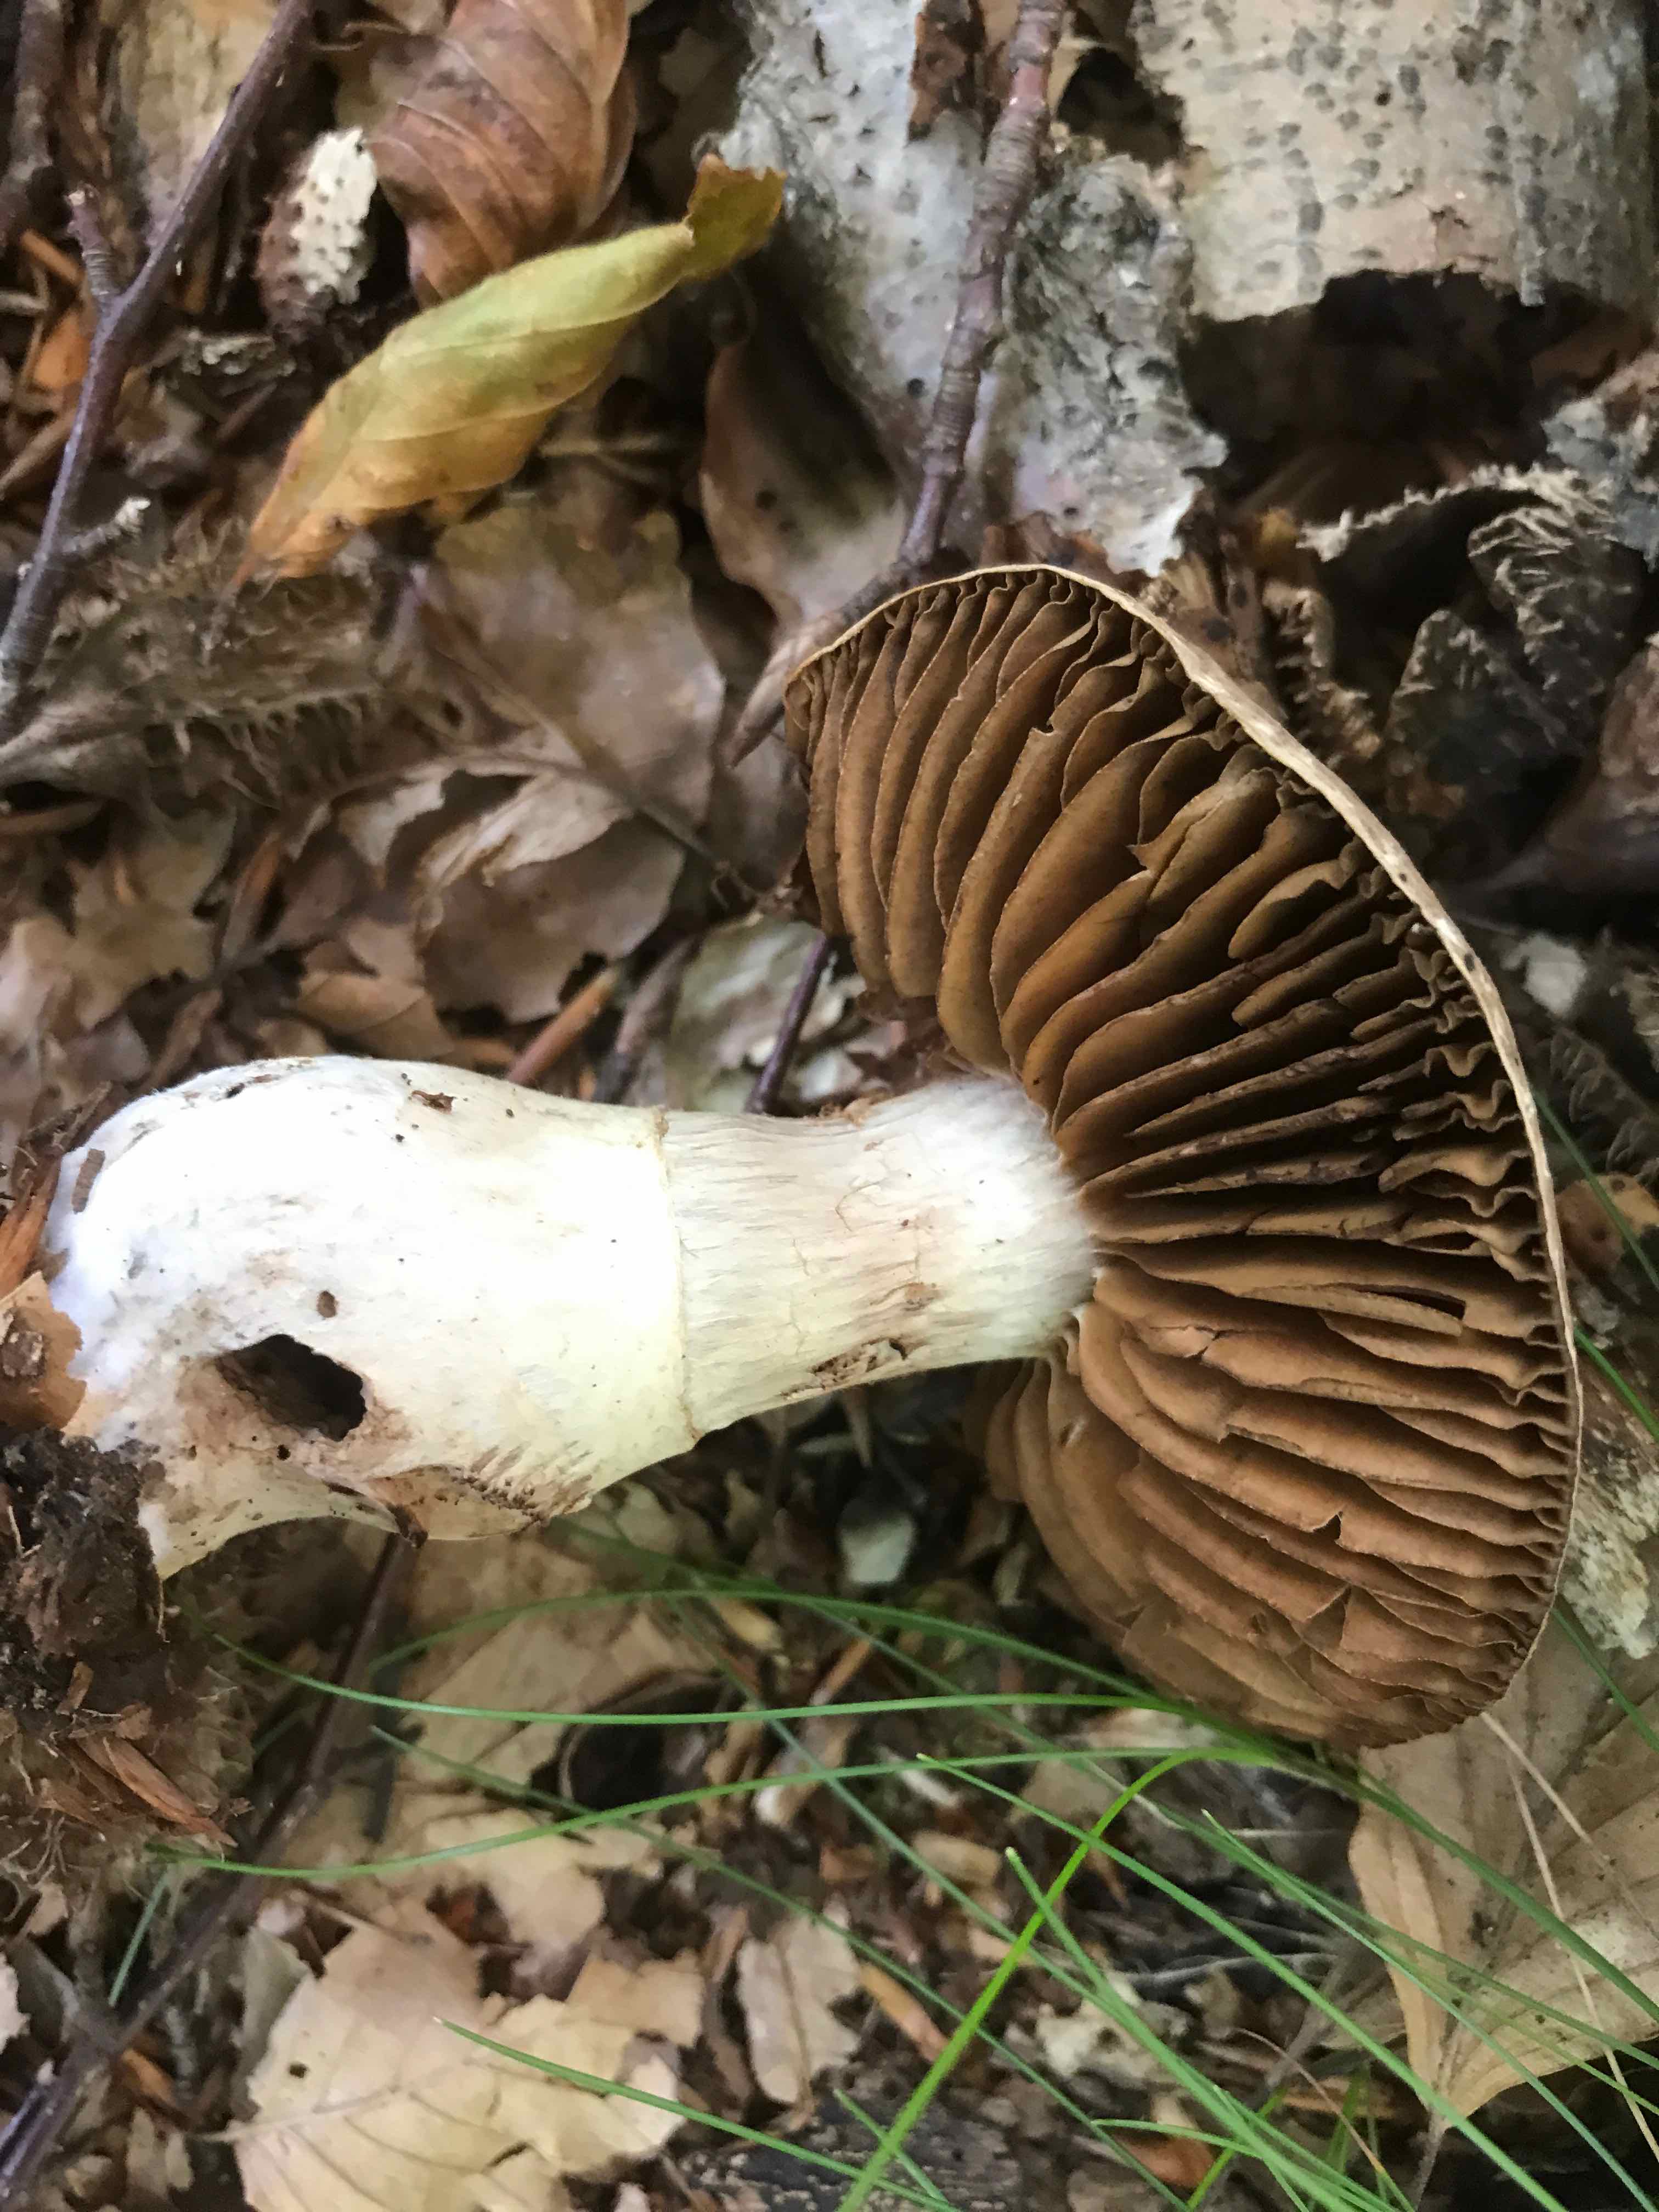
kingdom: Fungi
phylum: Basidiomycota
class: Agaricomycetes
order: Agaricales
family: Cortinariaceae
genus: Cortinarius
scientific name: Cortinarius torvus
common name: champignonagtig slørhat
